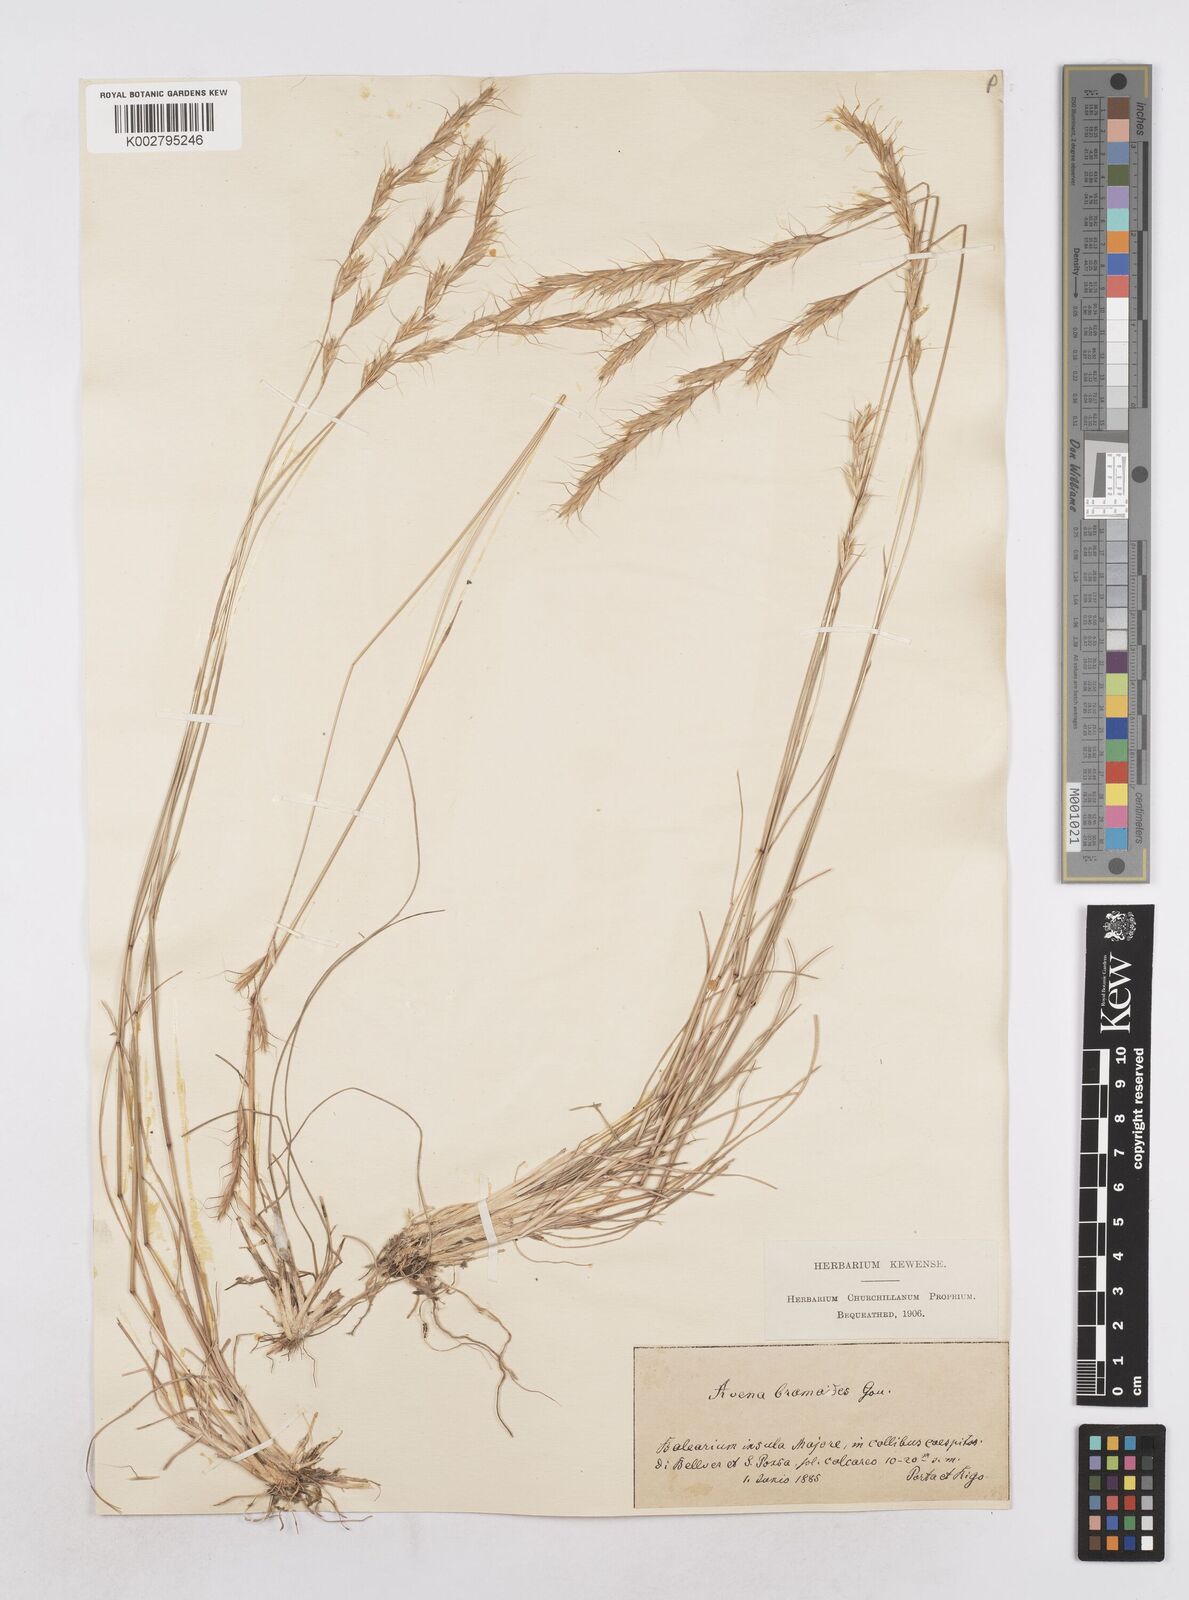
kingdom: Plantae
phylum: Tracheophyta
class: Liliopsida
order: Poales
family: Poaceae
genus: Helictochloa
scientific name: Helictochloa bromoides
